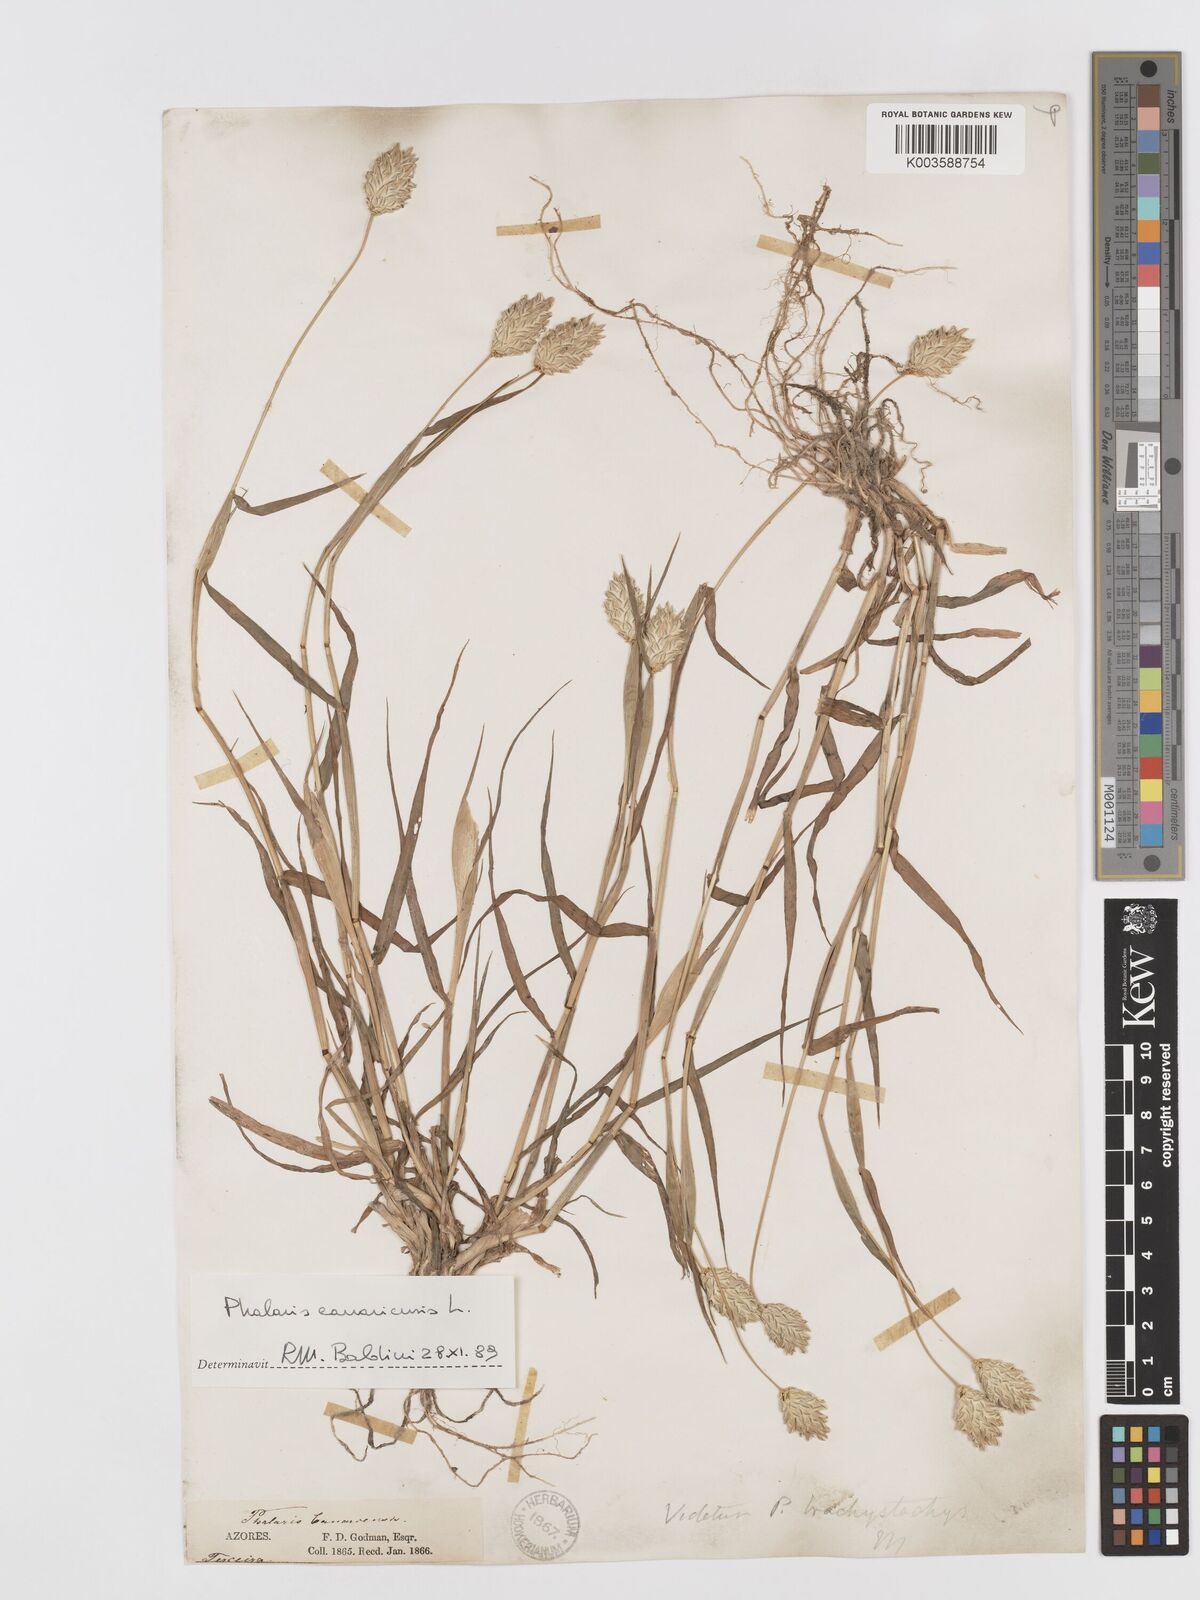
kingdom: Plantae
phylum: Tracheophyta
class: Liliopsida
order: Poales
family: Poaceae
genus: Phalaris
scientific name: Phalaris brachystachys
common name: Confused canary-grass
